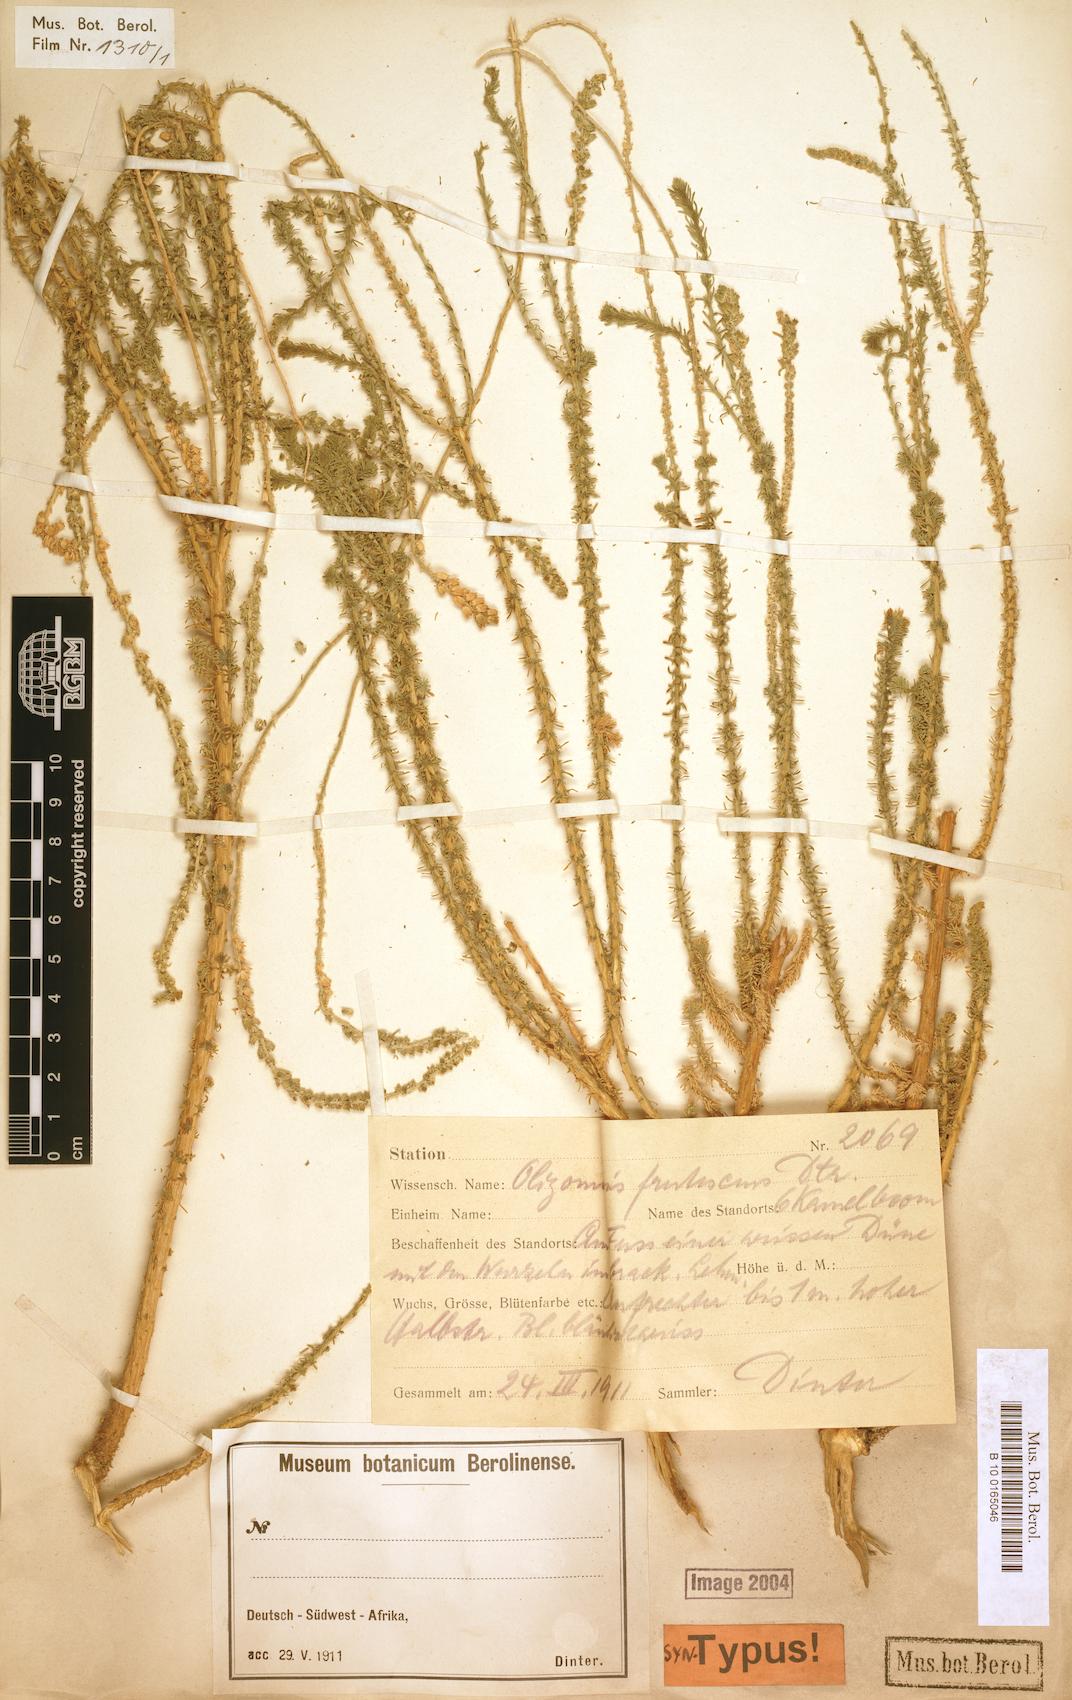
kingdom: Plantae
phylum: Tracheophyta
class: Magnoliopsida
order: Brassicales
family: Resedaceae
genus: Oligomeris
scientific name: Oligomeris dipetala
